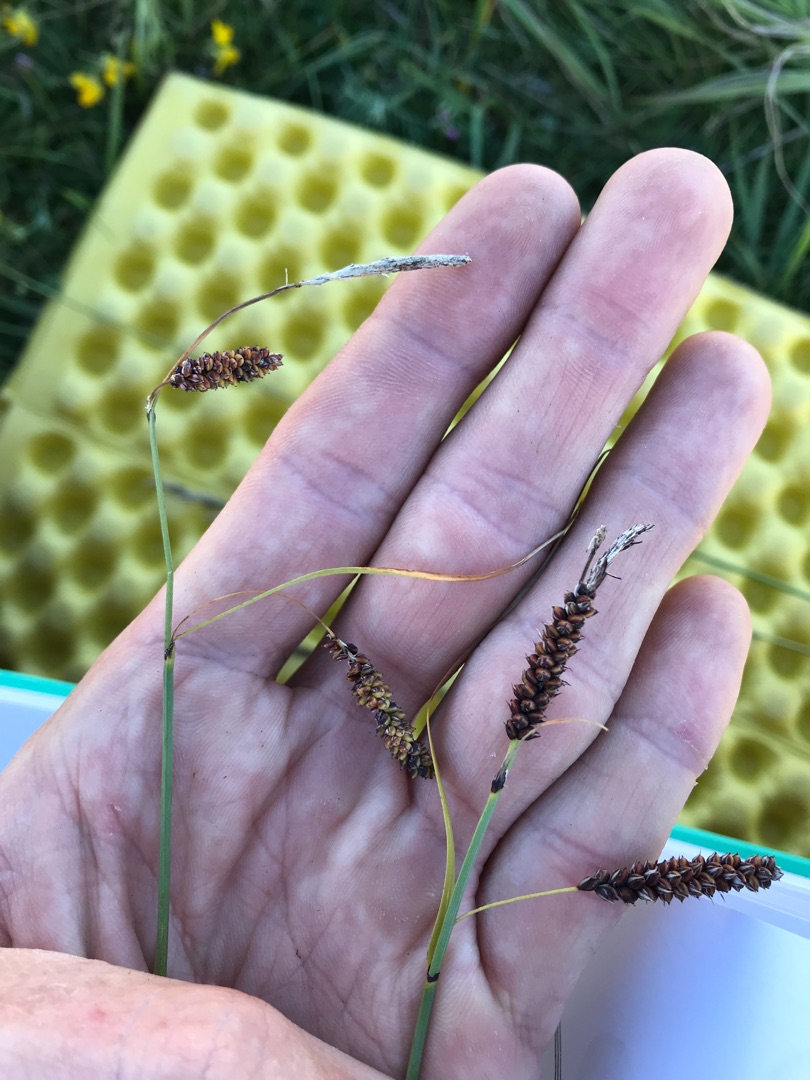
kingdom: Plantae
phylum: Tracheophyta
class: Liliopsida
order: Poales
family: Cyperaceae
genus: Carex
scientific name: Carex flacca
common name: Blågrøn star
